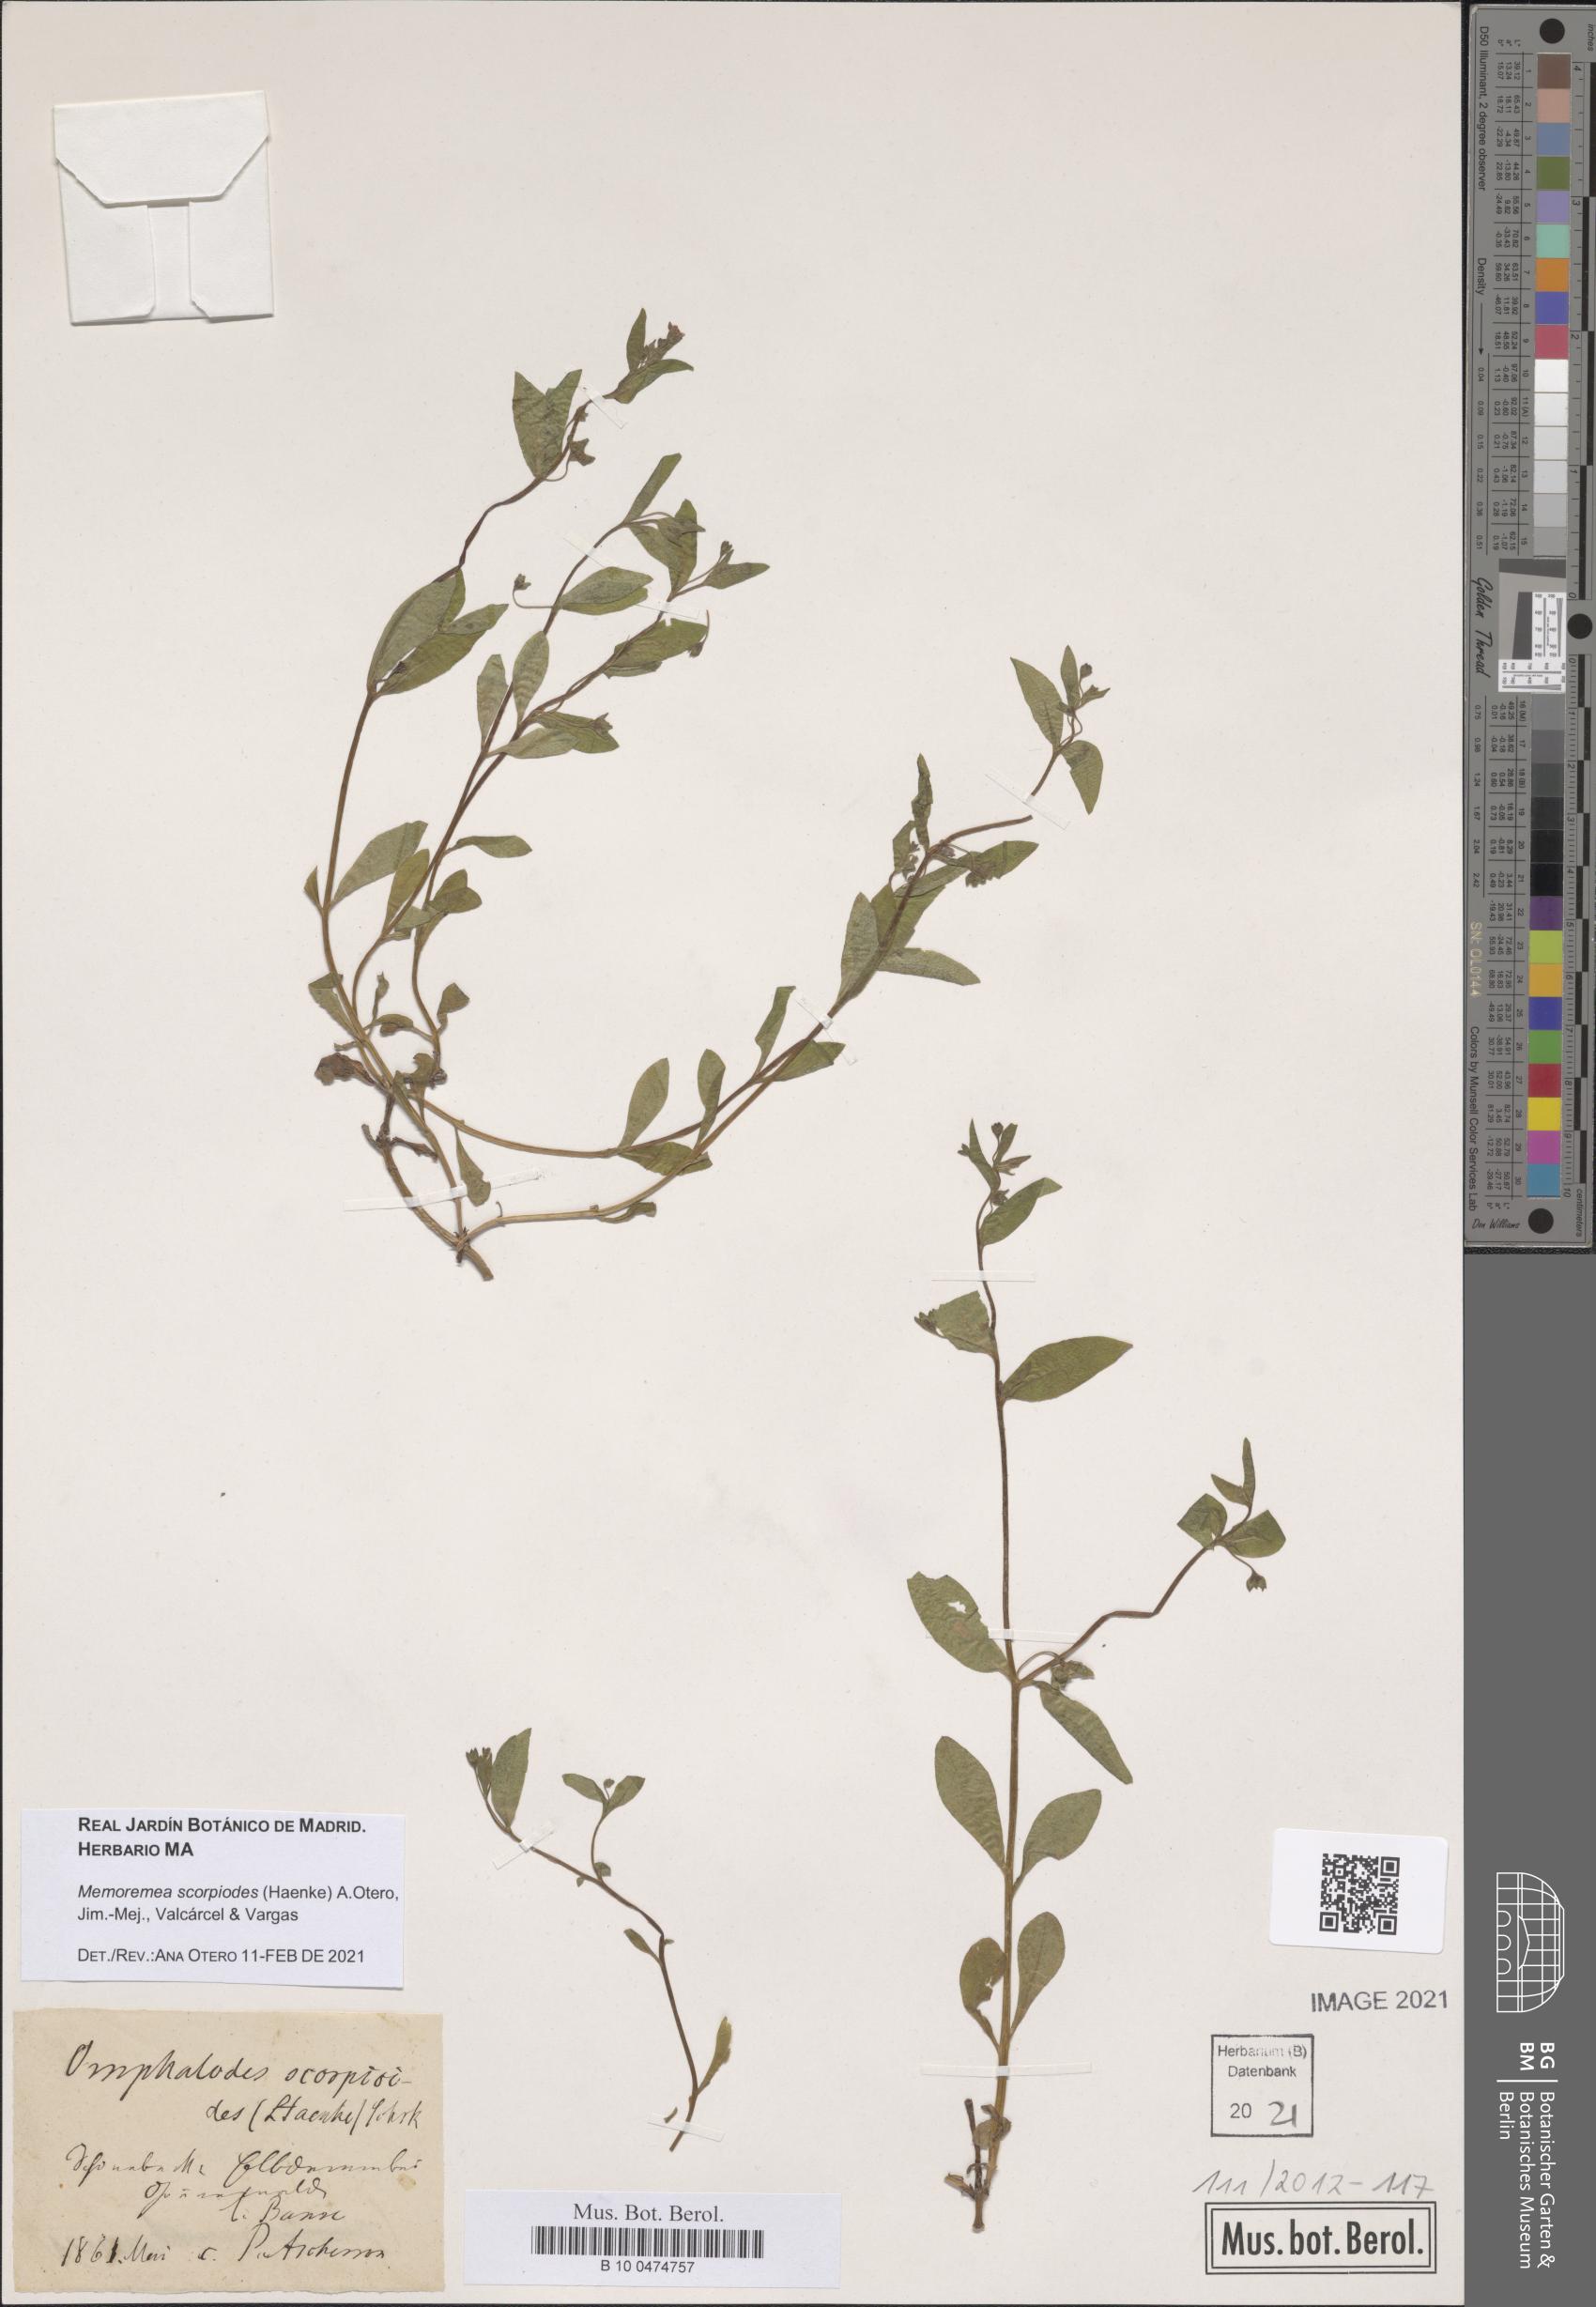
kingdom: Plantae
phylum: Tracheophyta
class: Magnoliopsida
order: Boraginales
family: Boraginaceae
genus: Memoremea
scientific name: Memoremea scorpioides
